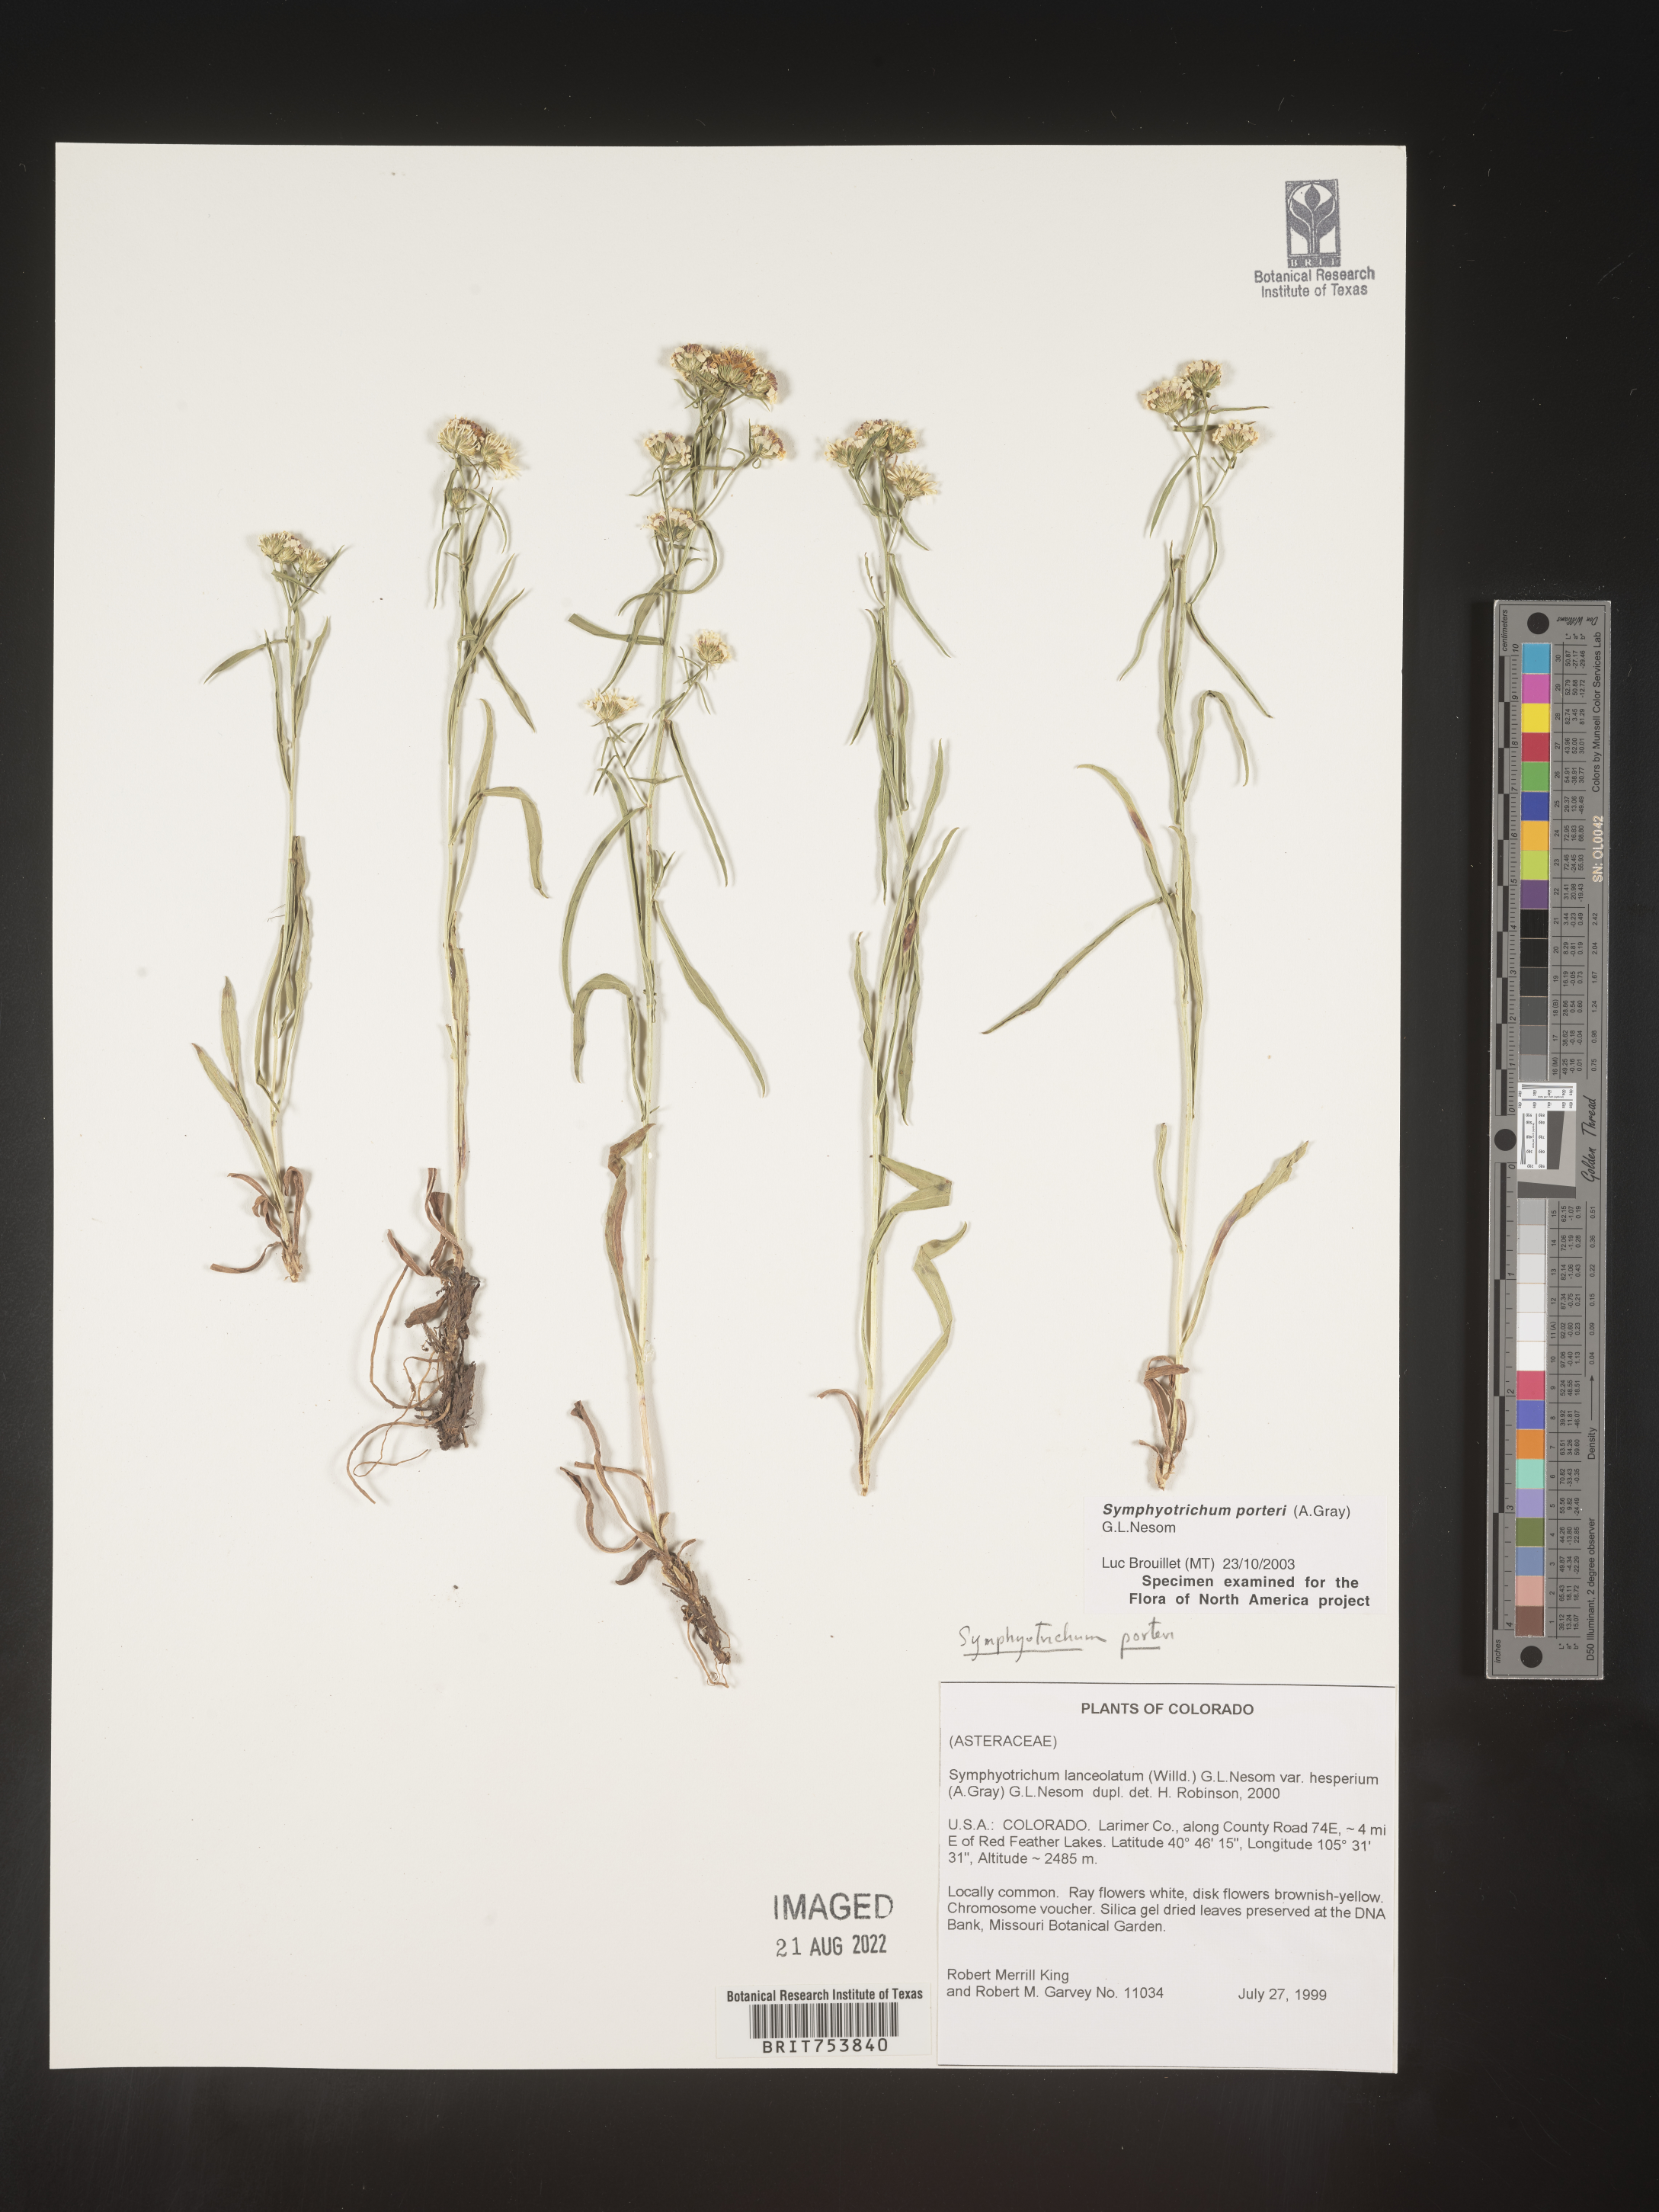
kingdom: Plantae
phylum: Tracheophyta
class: Magnoliopsida
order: Asterales
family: Asteraceae
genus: Symphyotrichum
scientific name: Symphyotrichum porteri
